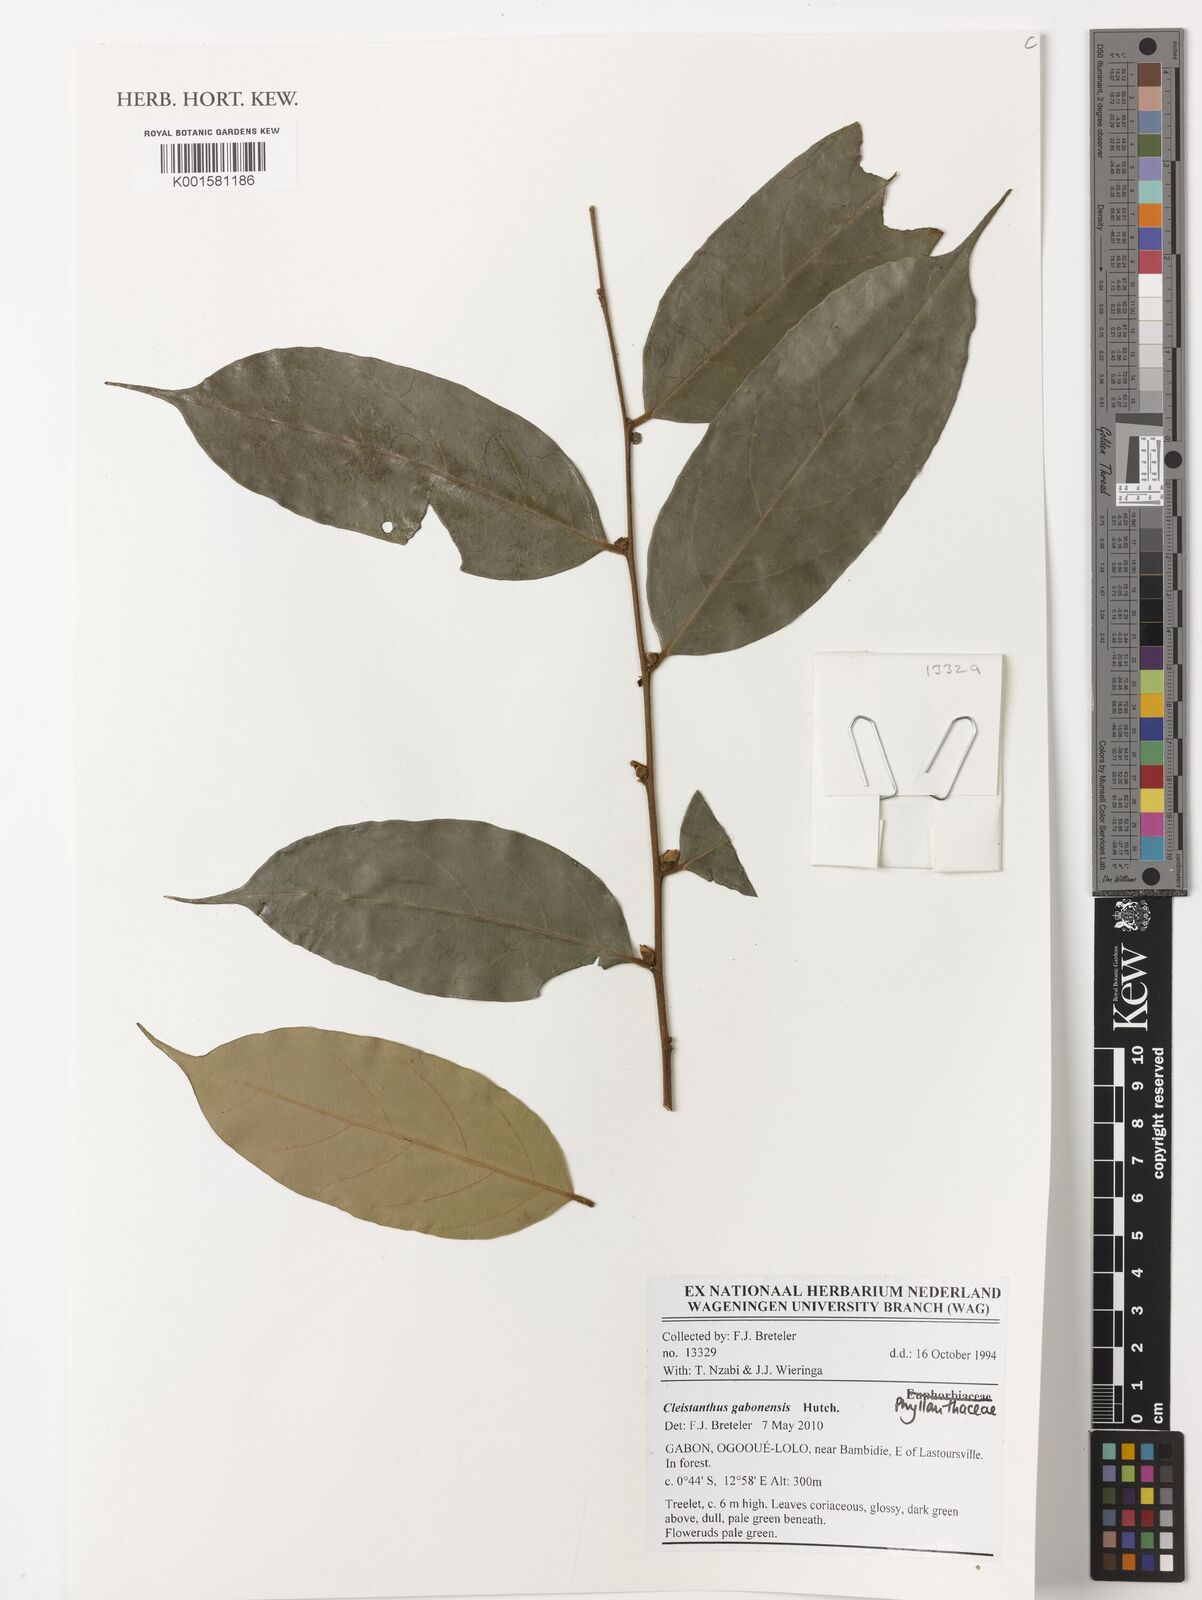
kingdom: Plantae
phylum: Tracheophyta
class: Magnoliopsida
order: Malpighiales
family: Phyllanthaceae
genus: Cleistanthus
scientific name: Cleistanthus gabonensis
